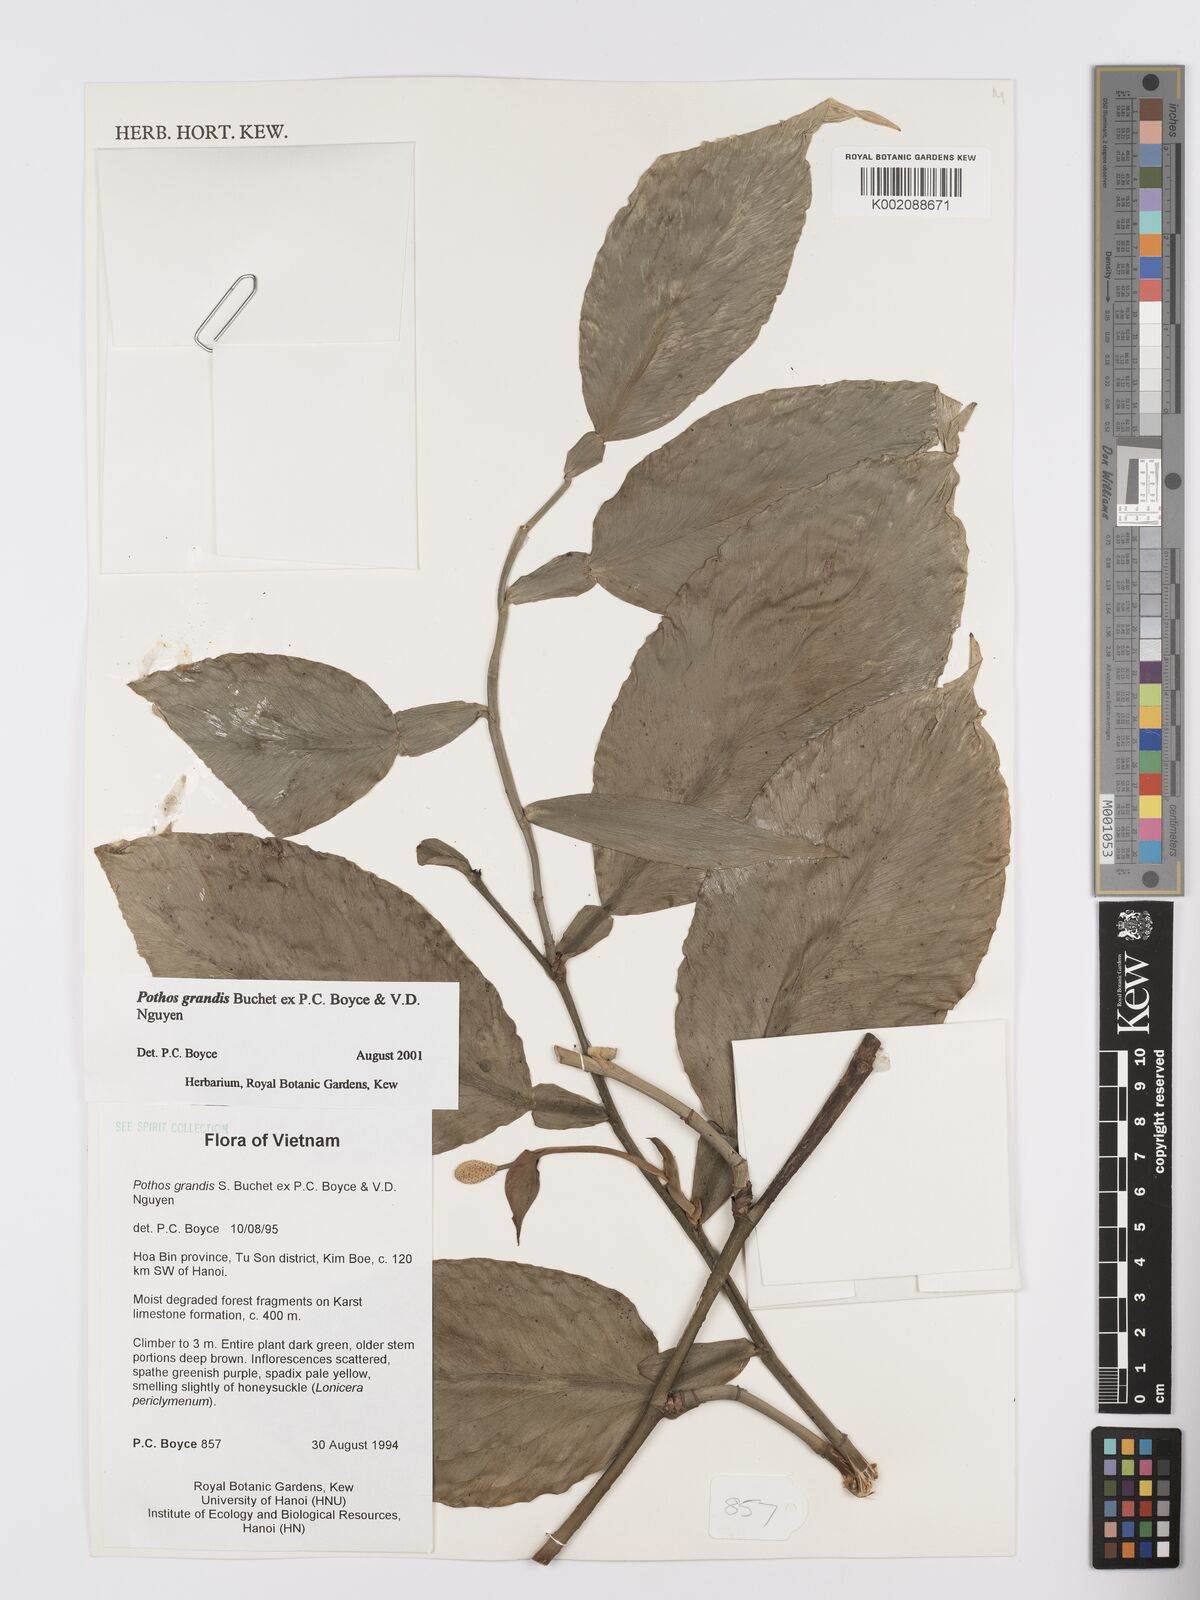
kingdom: Plantae
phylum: Tracheophyta
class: Liliopsida
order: Alismatales
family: Araceae
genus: Pothos
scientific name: Pothos grandis
